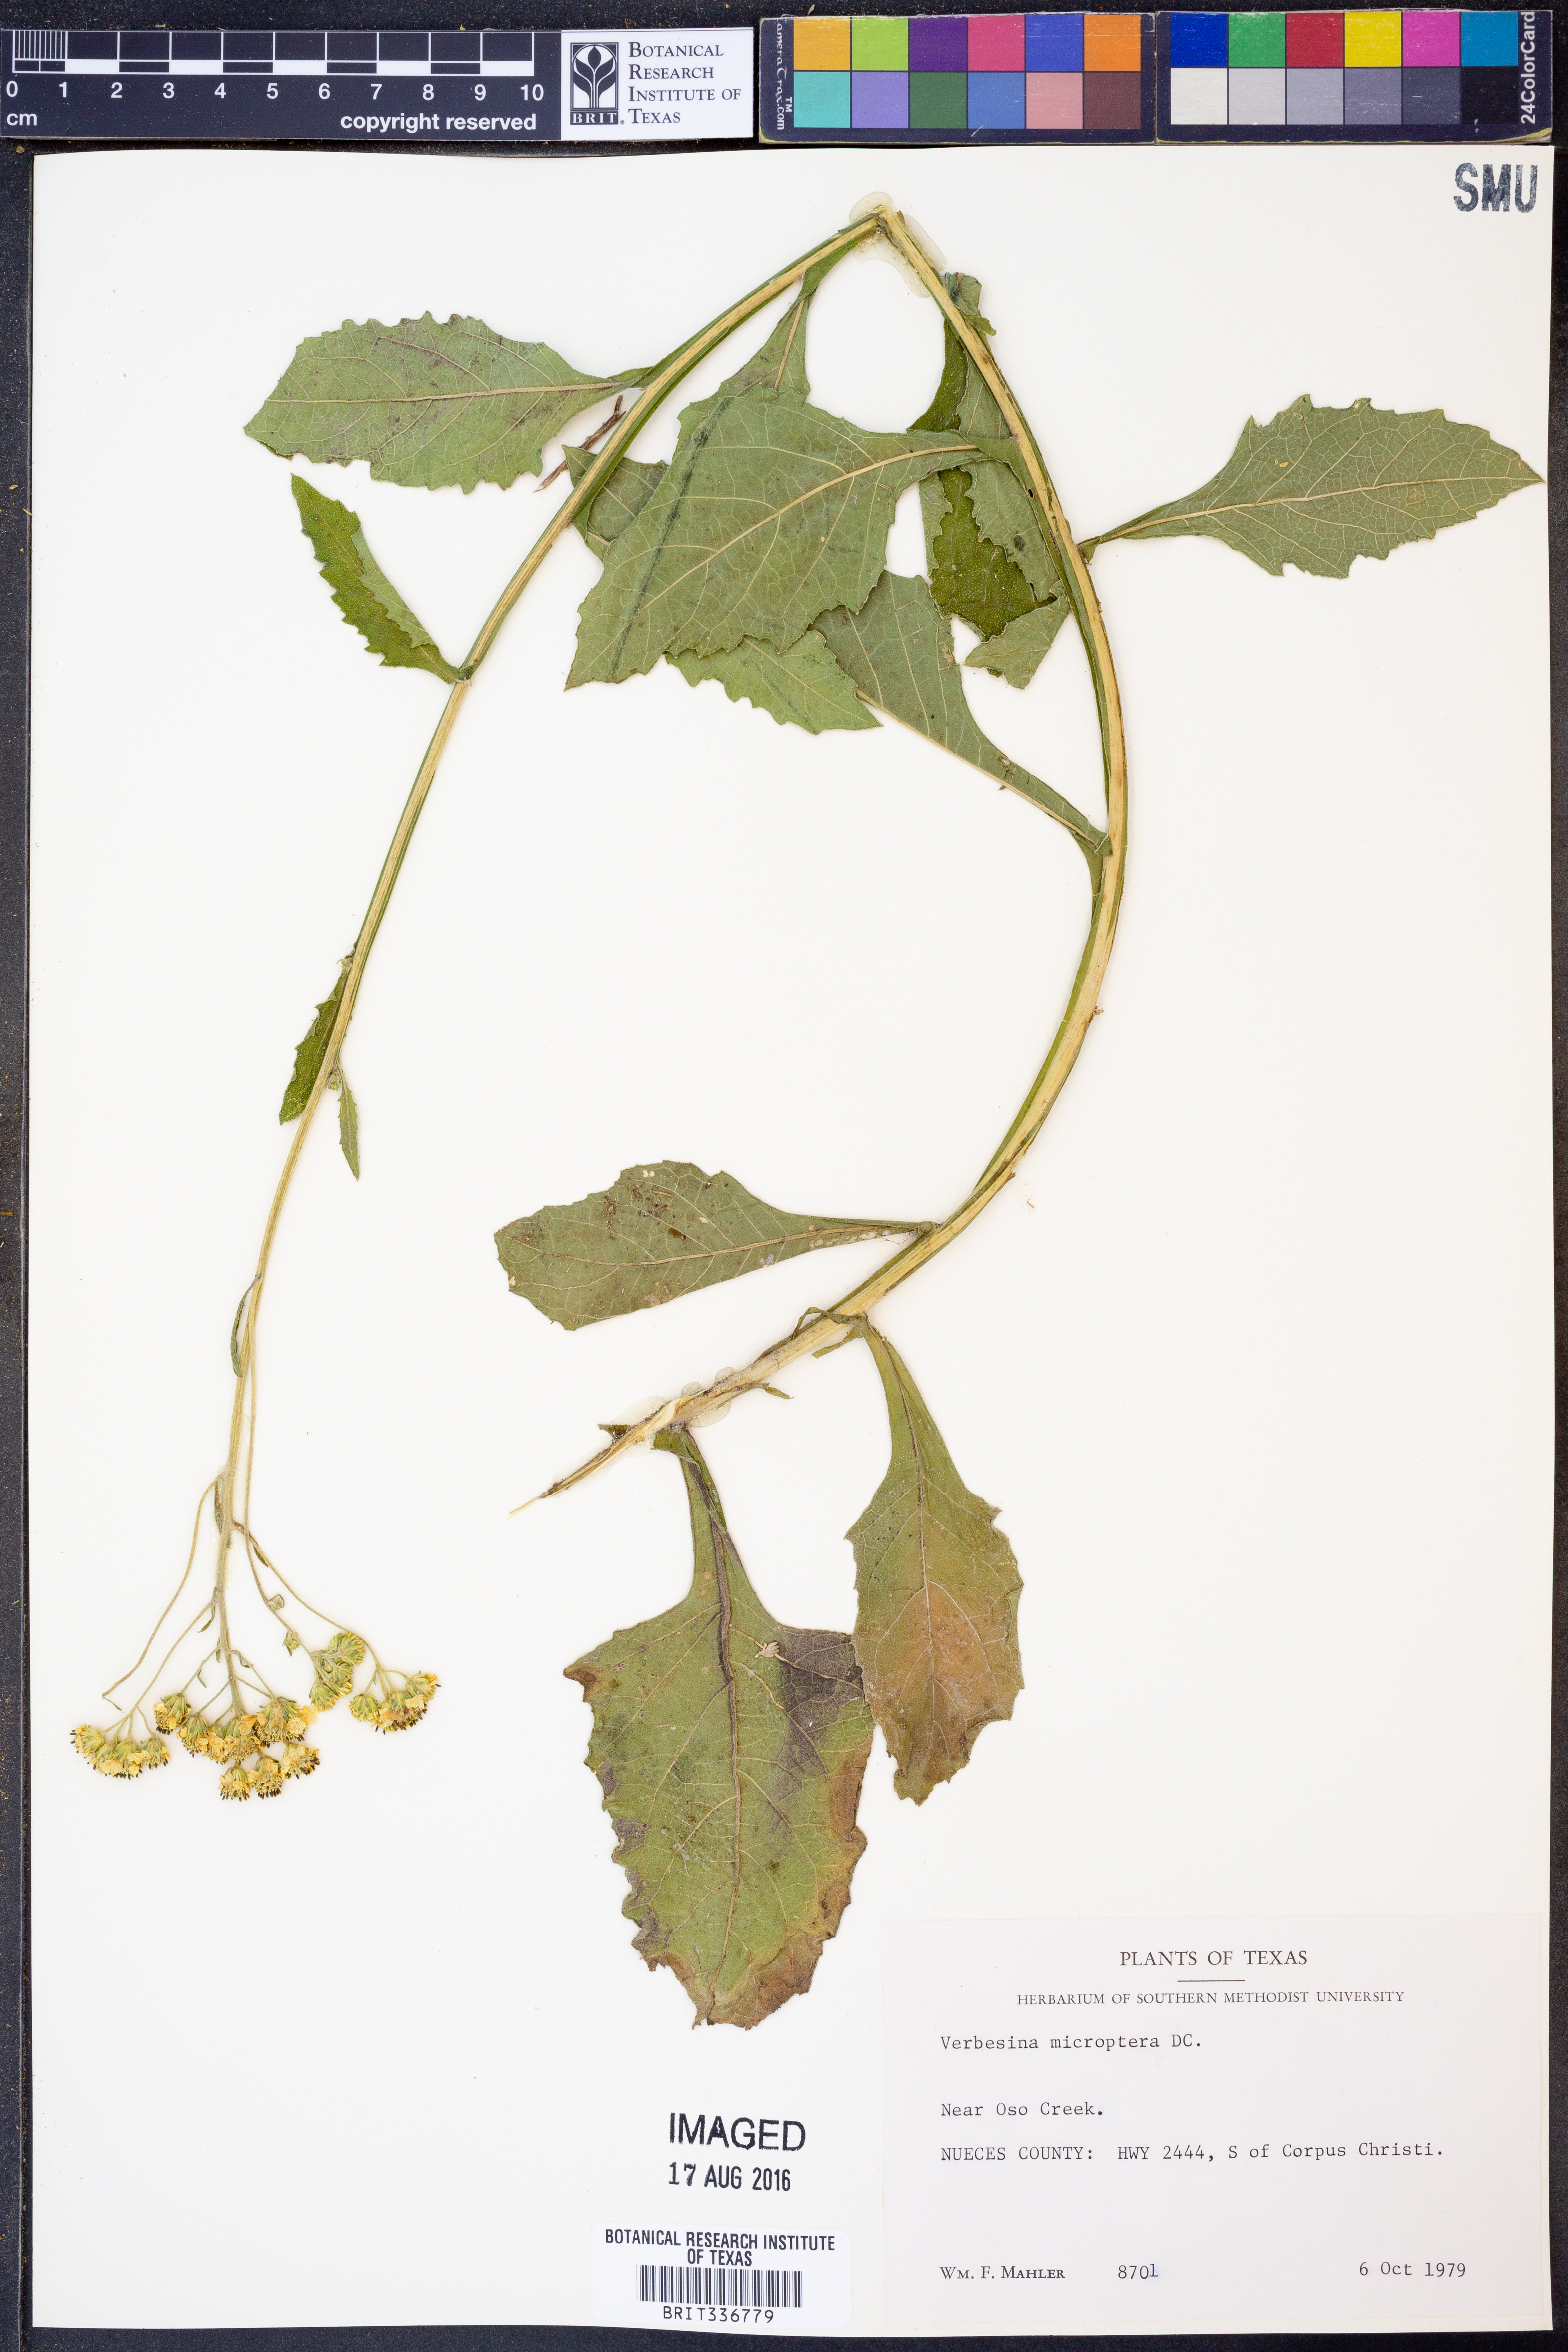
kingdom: Plantae
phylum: Tracheophyta
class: Magnoliopsida
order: Asterales
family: Asteraceae
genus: Verbesina
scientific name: Verbesina encelioides
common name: Golden crownbeard
